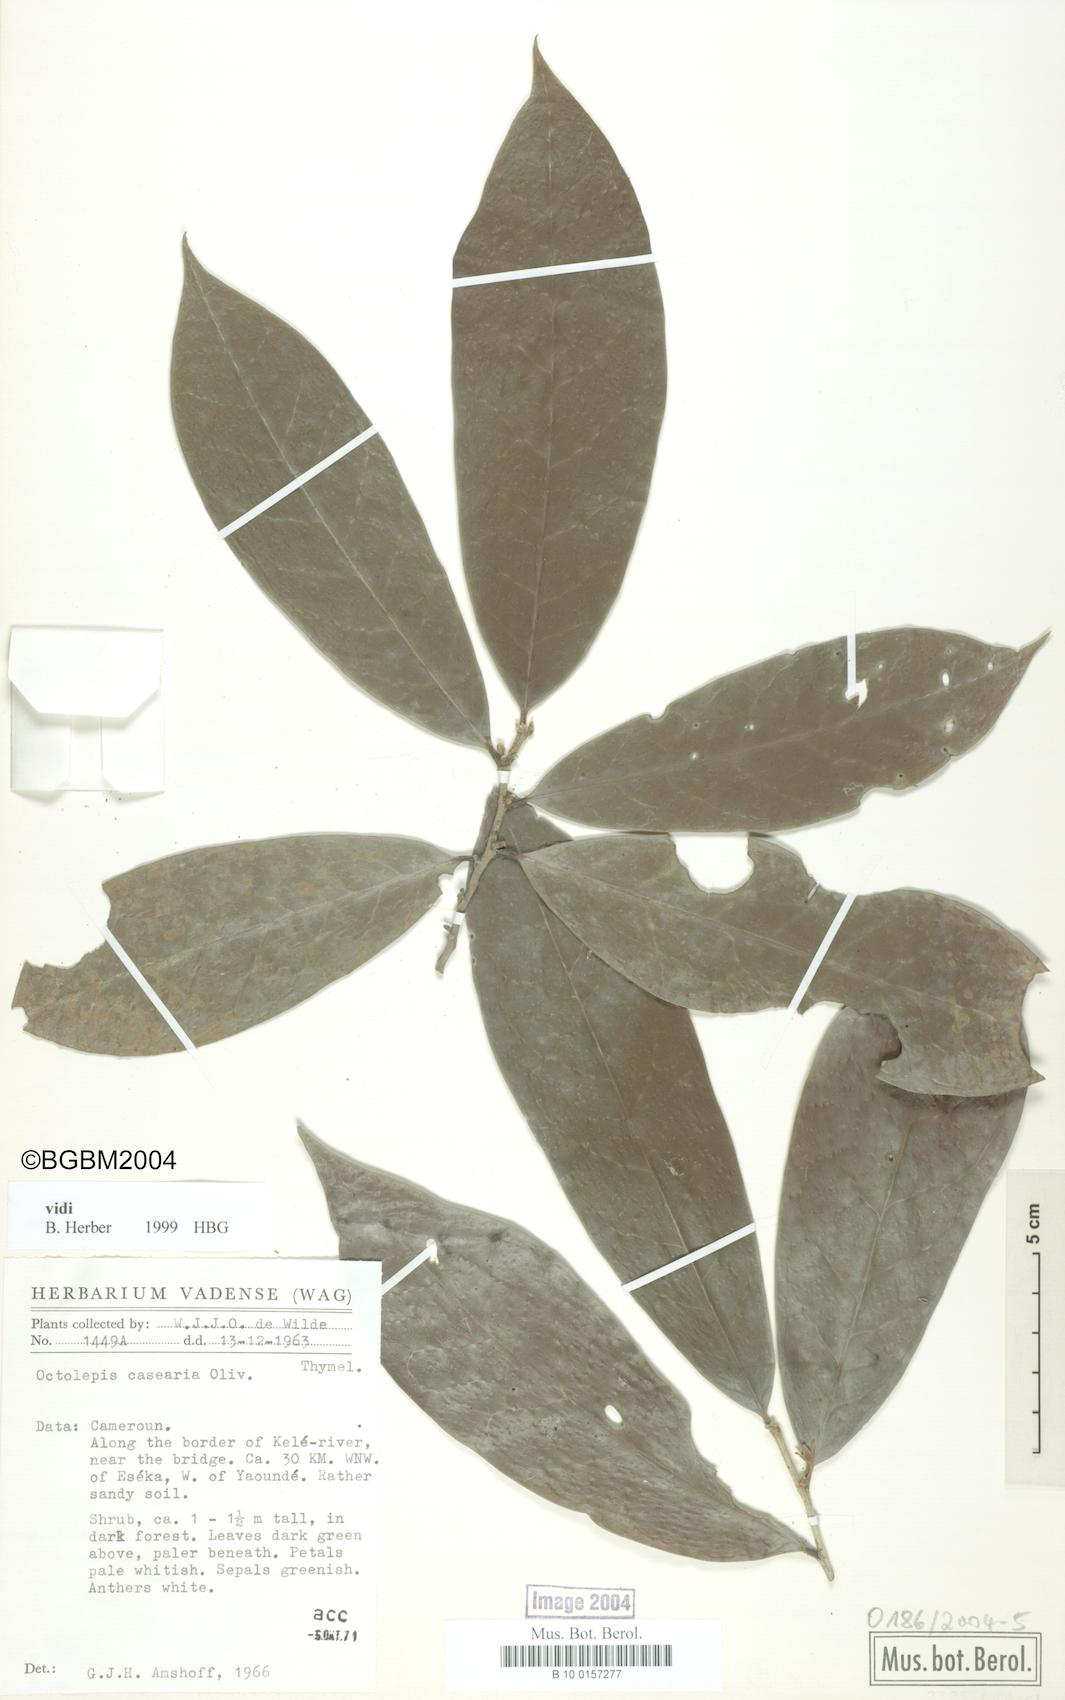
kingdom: Plantae
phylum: Tracheophyta
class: Magnoliopsida
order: Malvales
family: Thymelaeaceae
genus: Octolepis
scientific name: Octolepis casearia
